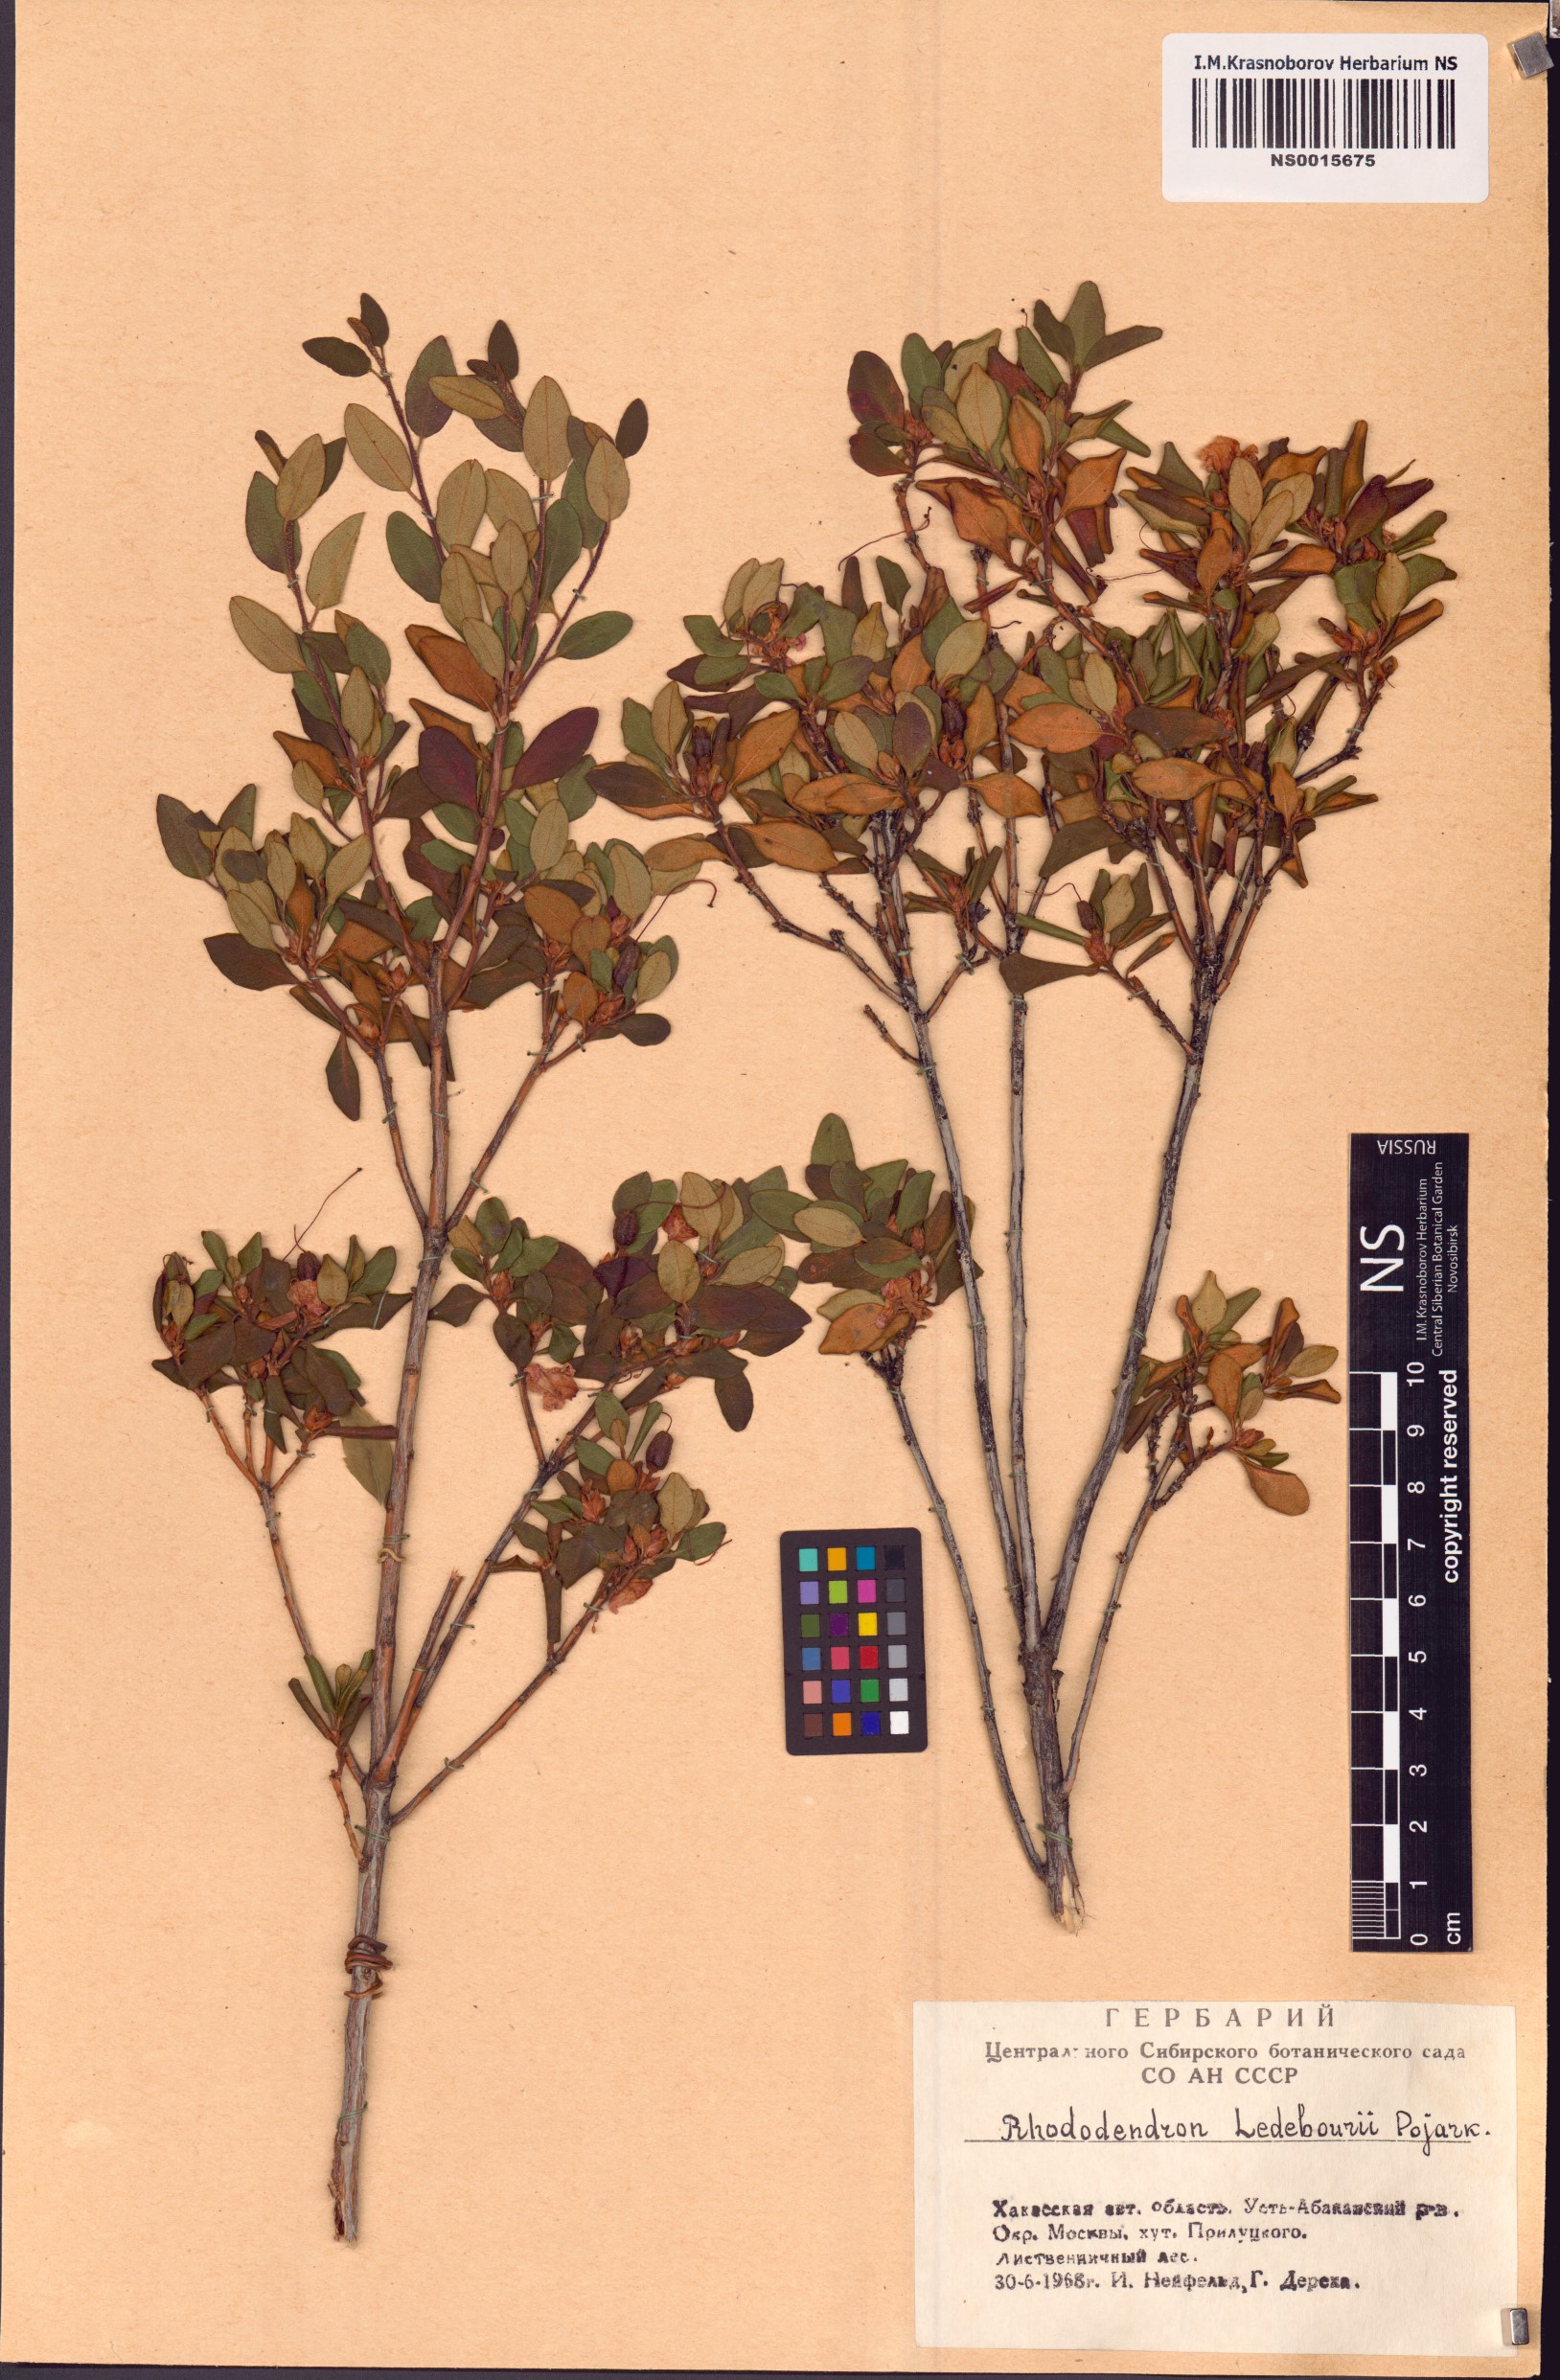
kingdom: Plantae
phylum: Tracheophyta
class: Magnoliopsida
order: Ericales
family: Ericaceae
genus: Rhododendron
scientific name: Rhododendron dauricum
